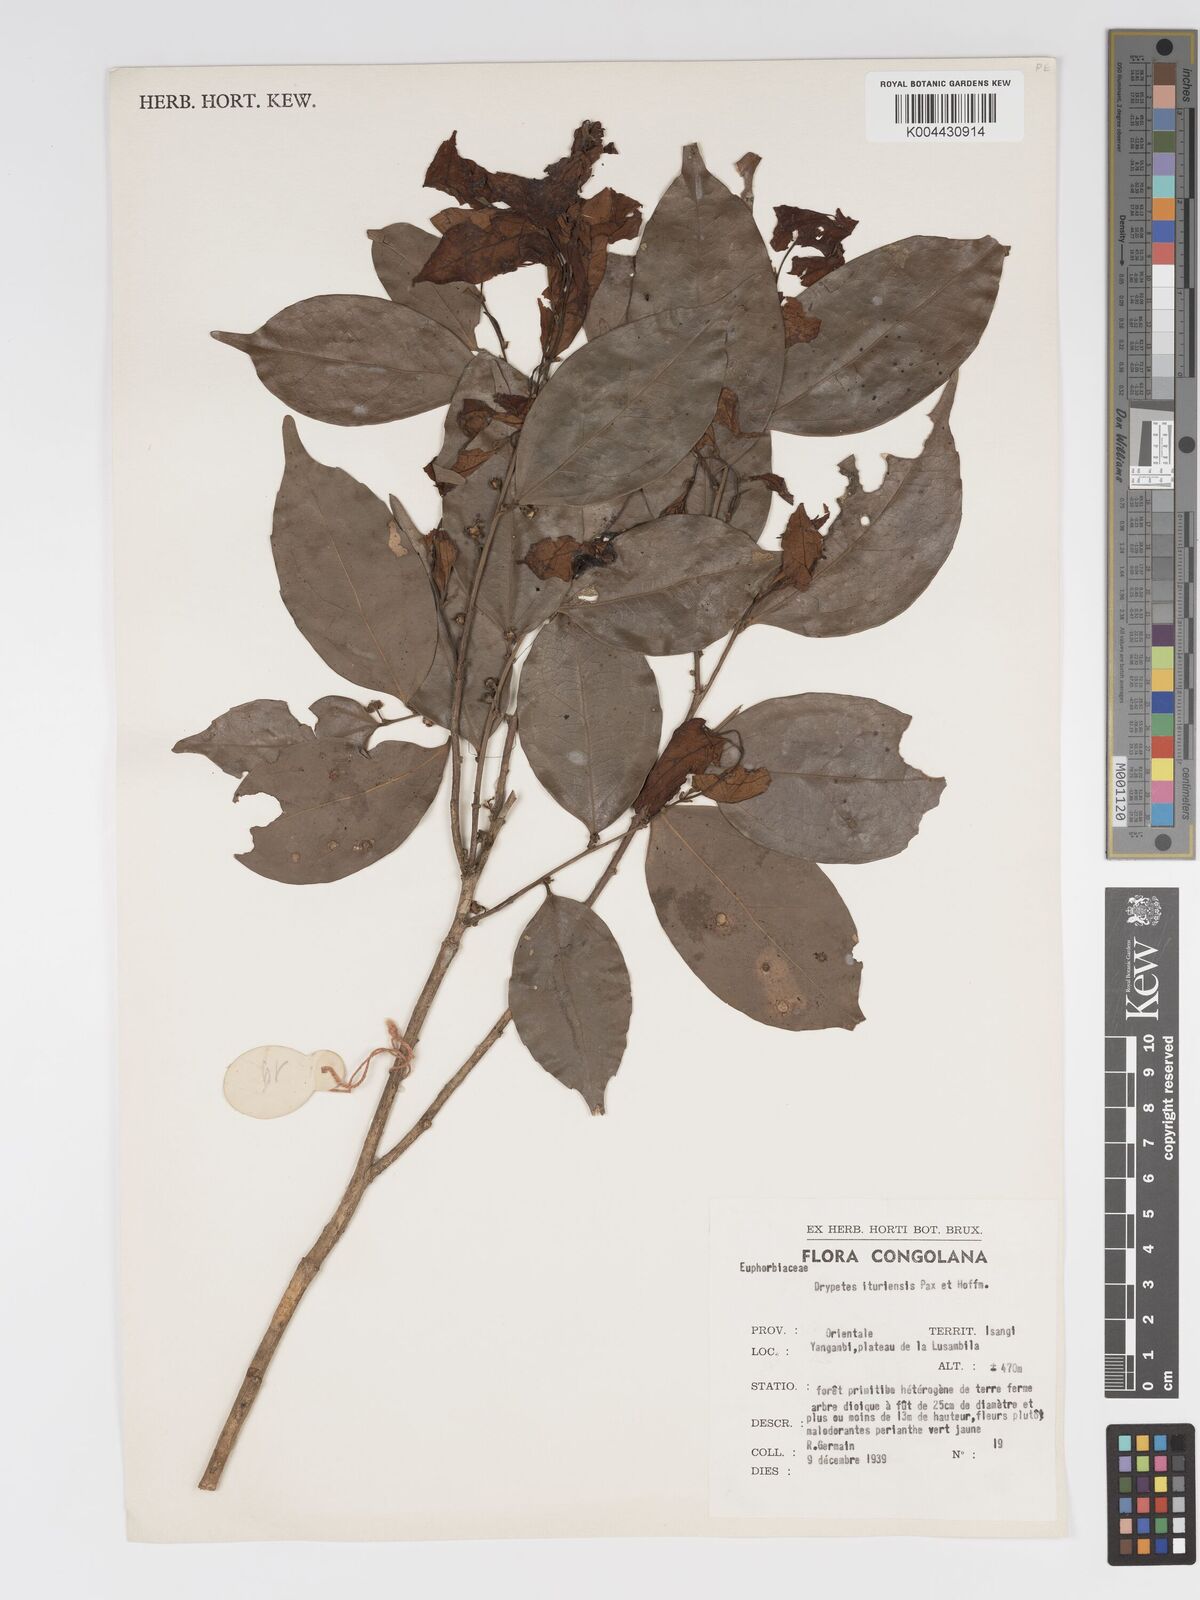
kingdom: Plantae
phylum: Tracheophyta
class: Magnoliopsida
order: Malpighiales
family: Putranjivaceae
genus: Drypetes
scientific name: Drypetes ituriensis
